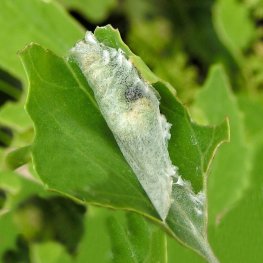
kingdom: Animalia
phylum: Arthropoda
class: Insecta
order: Lepidoptera
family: Hesperiidae
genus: Pholisora
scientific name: Pholisora catullus
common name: Common Sootywing
